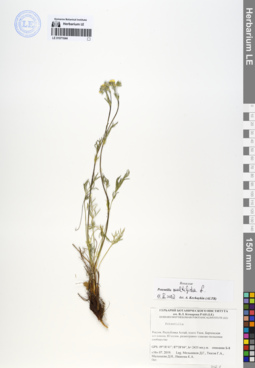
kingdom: Plantae
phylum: Tracheophyta
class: Magnoliopsida
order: Rosales
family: Rosaceae
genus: Potentilla
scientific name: Potentilla multifida
